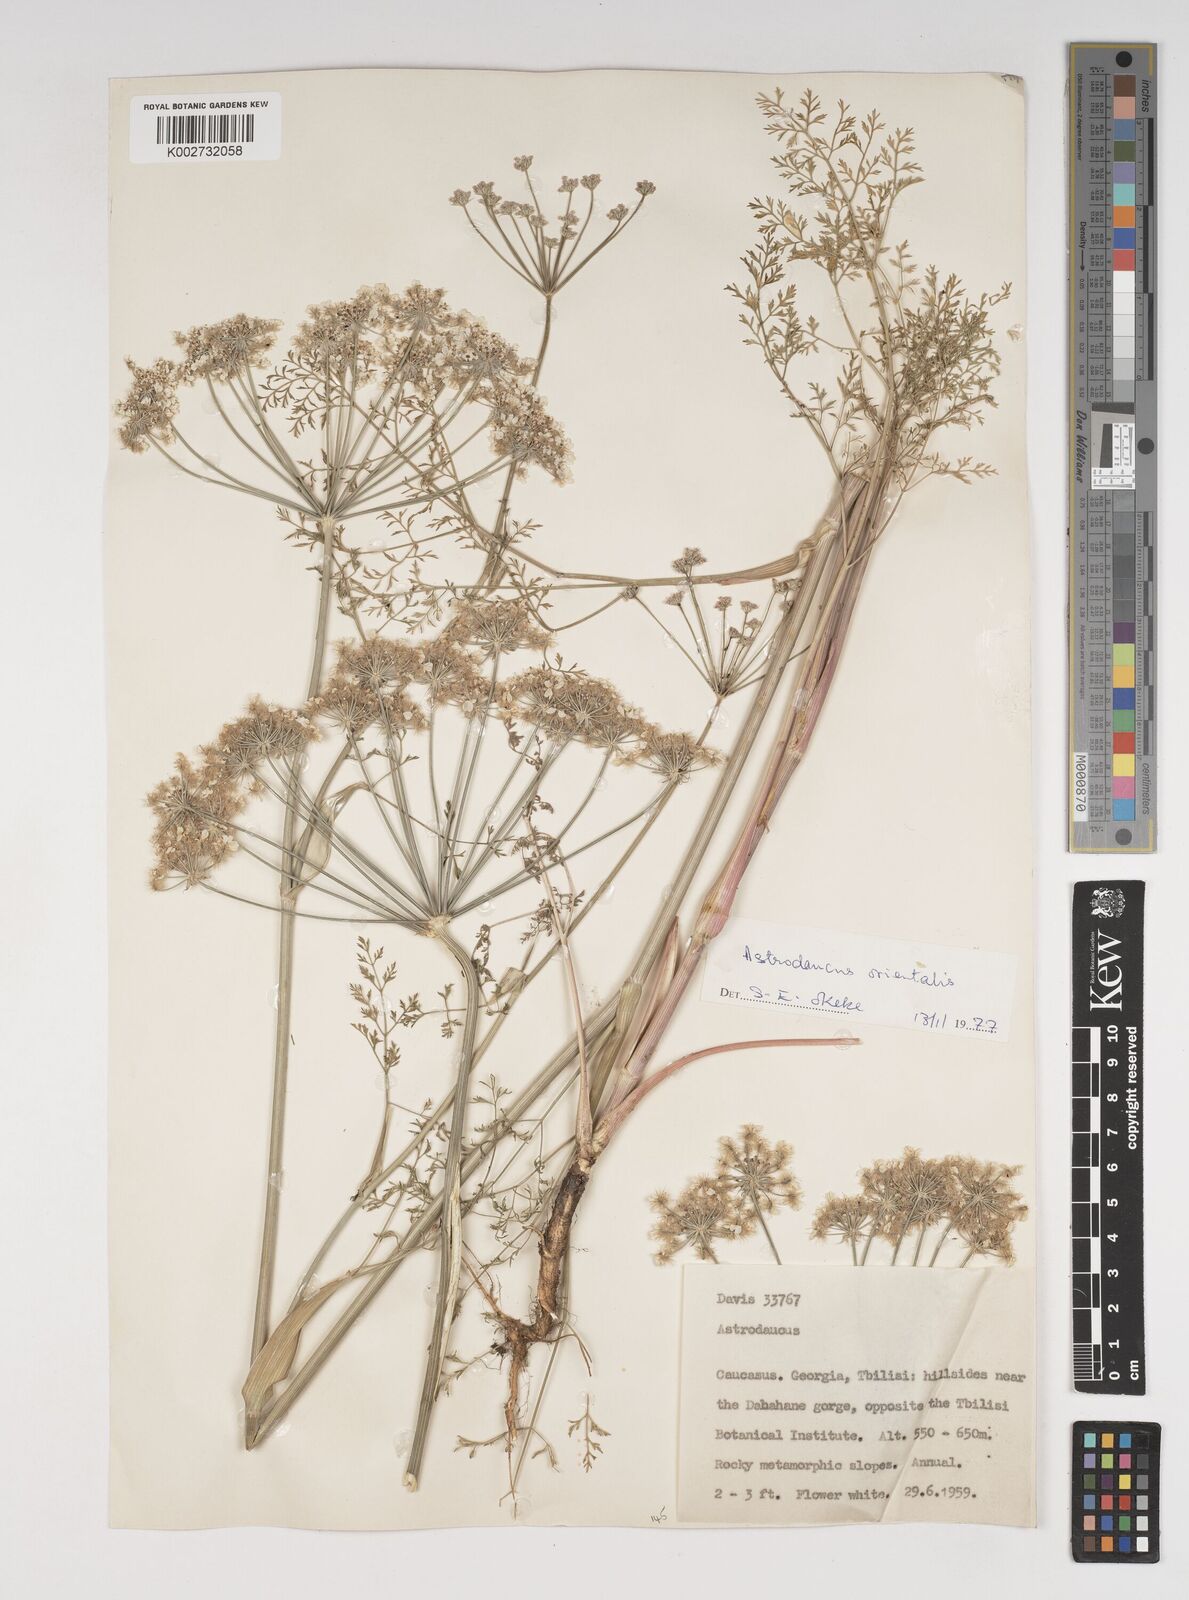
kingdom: Plantae
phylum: Tracheophyta
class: Magnoliopsida
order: Apiales
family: Apiaceae
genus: Astrodaucus
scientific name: Astrodaucus orientalis
